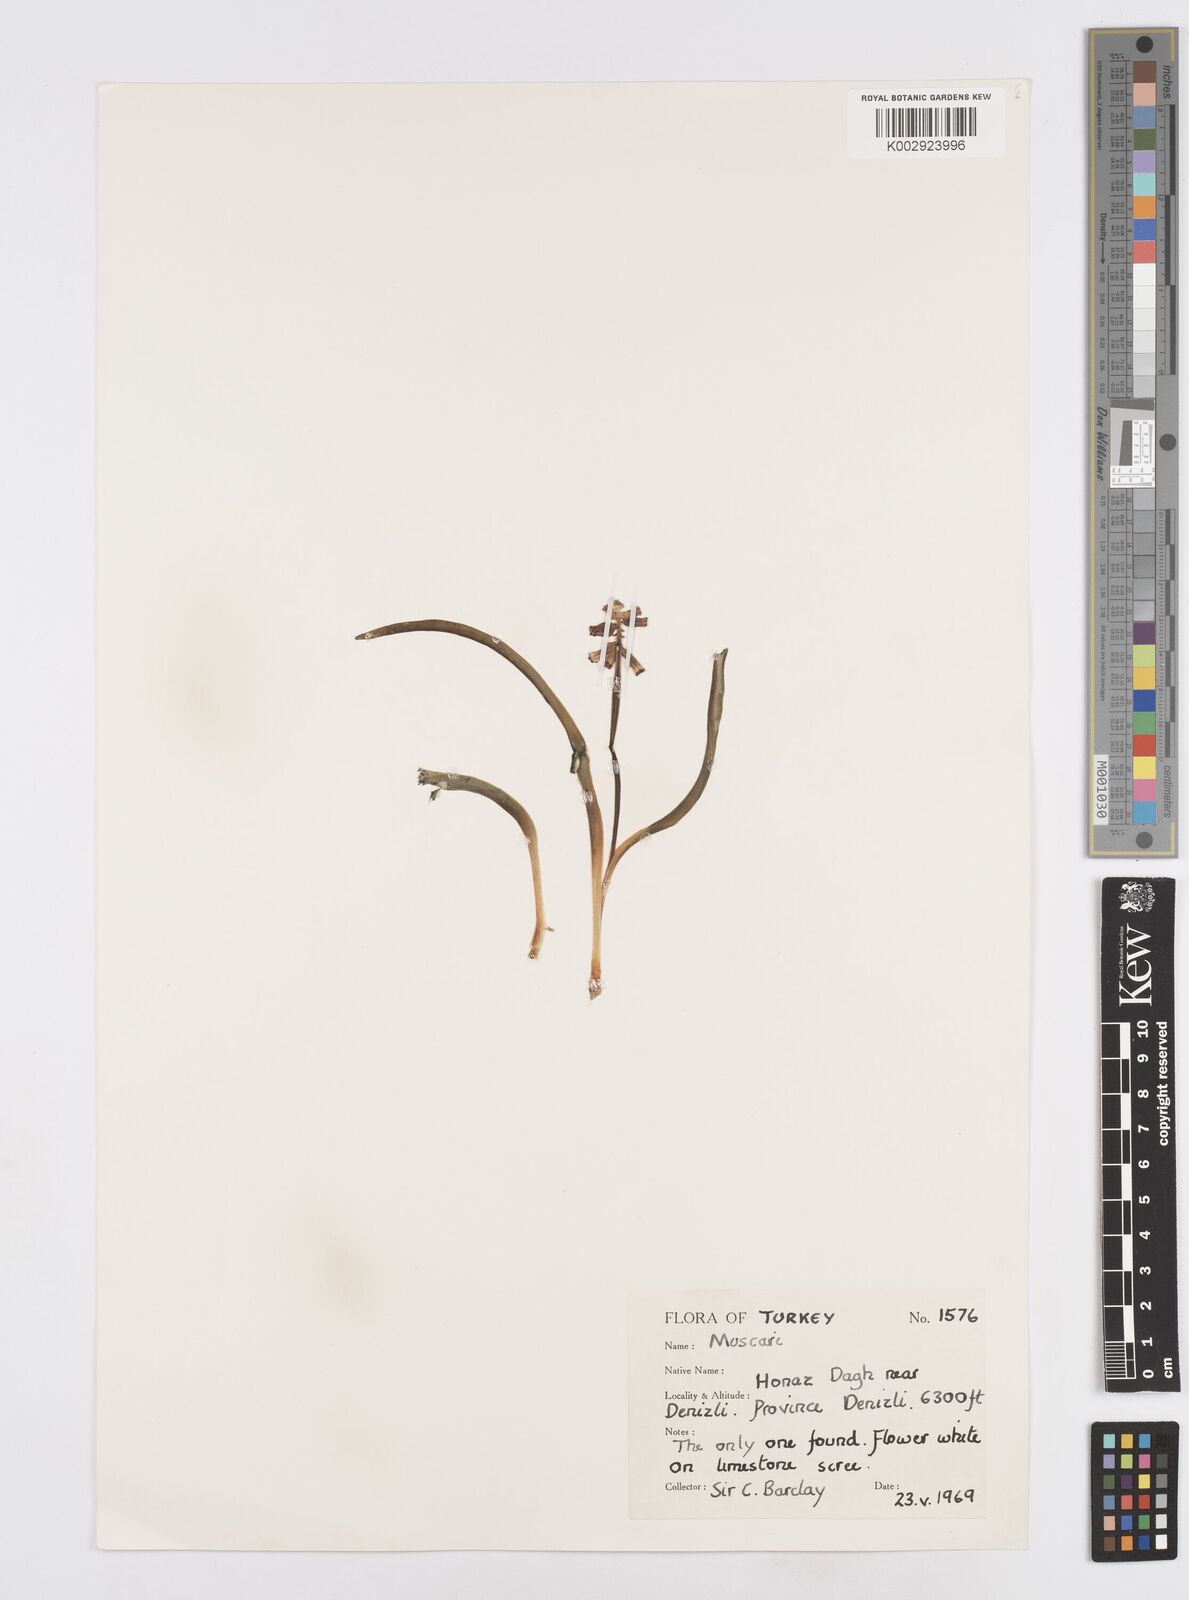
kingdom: Plantae
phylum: Tracheophyta
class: Liliopsida
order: Asparagales
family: Asparagaceae
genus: Muscari
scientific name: Muscari
